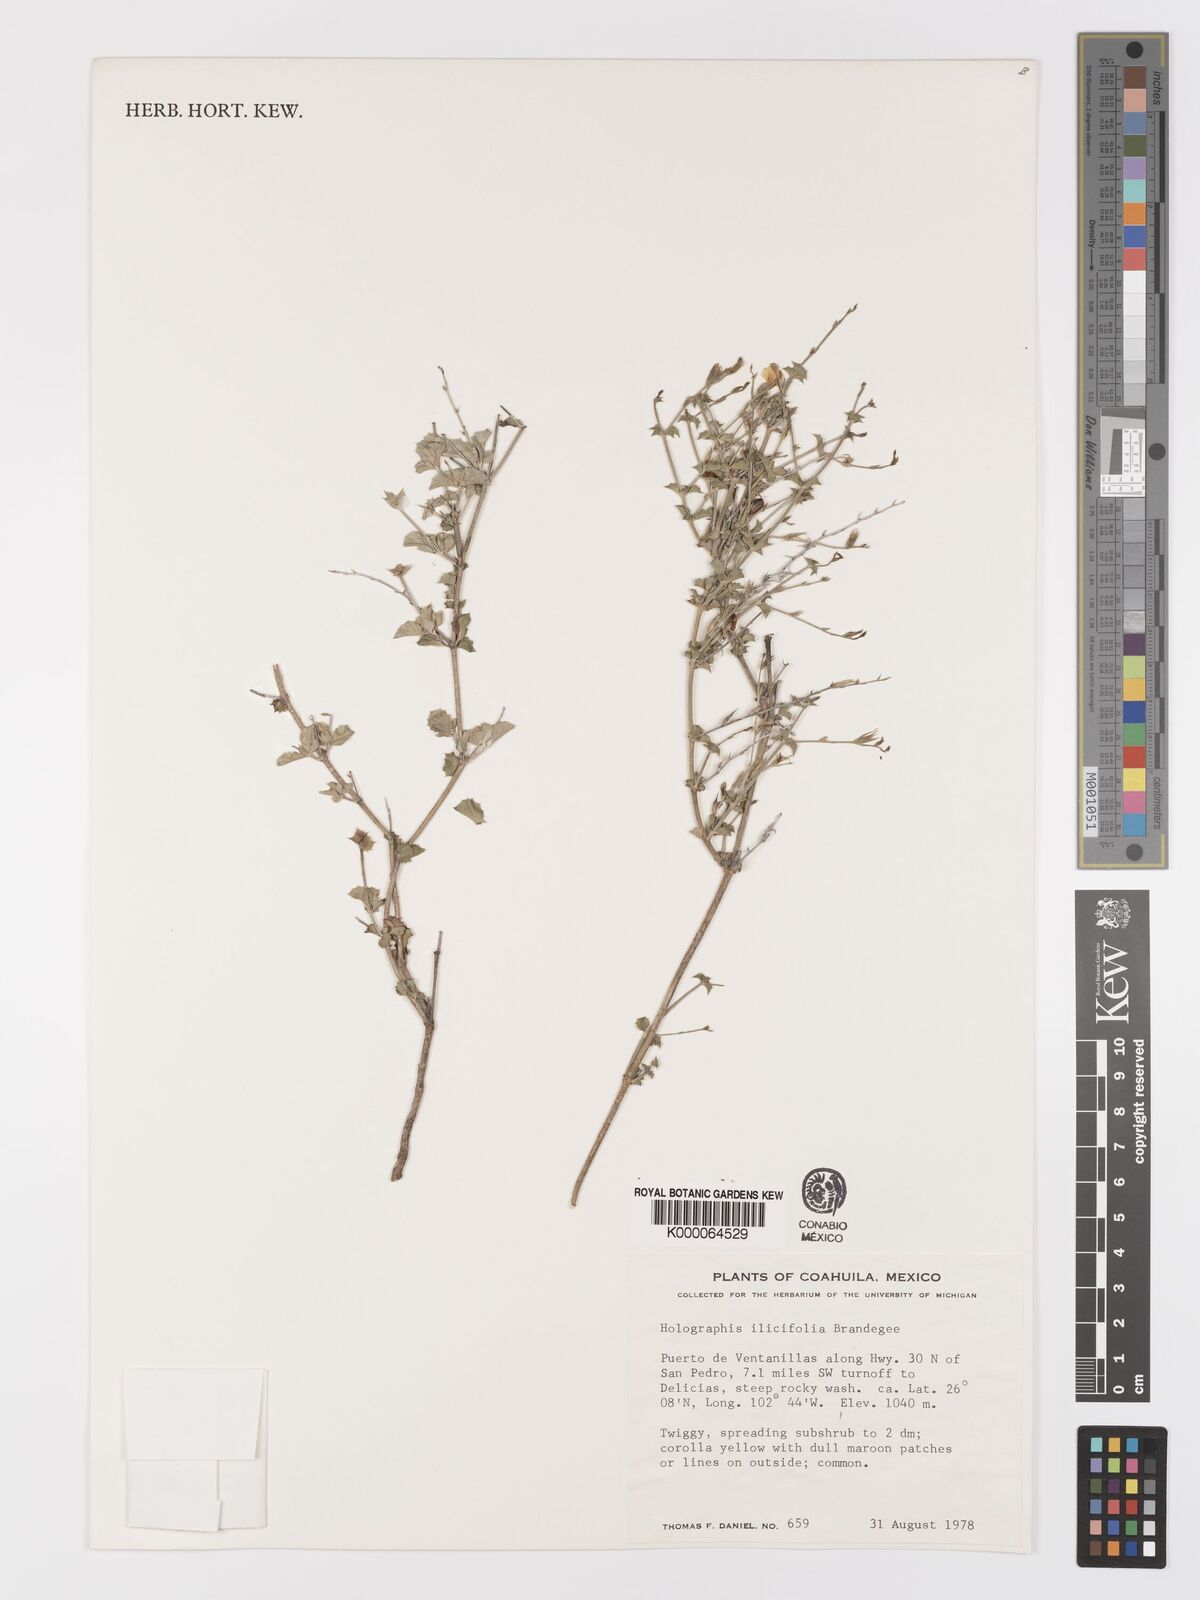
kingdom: Plantae
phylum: Tracheophyta
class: Magnoliopsida
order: Lamiales
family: Acanthaceae
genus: Holographis
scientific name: Holographis ilicifolia
